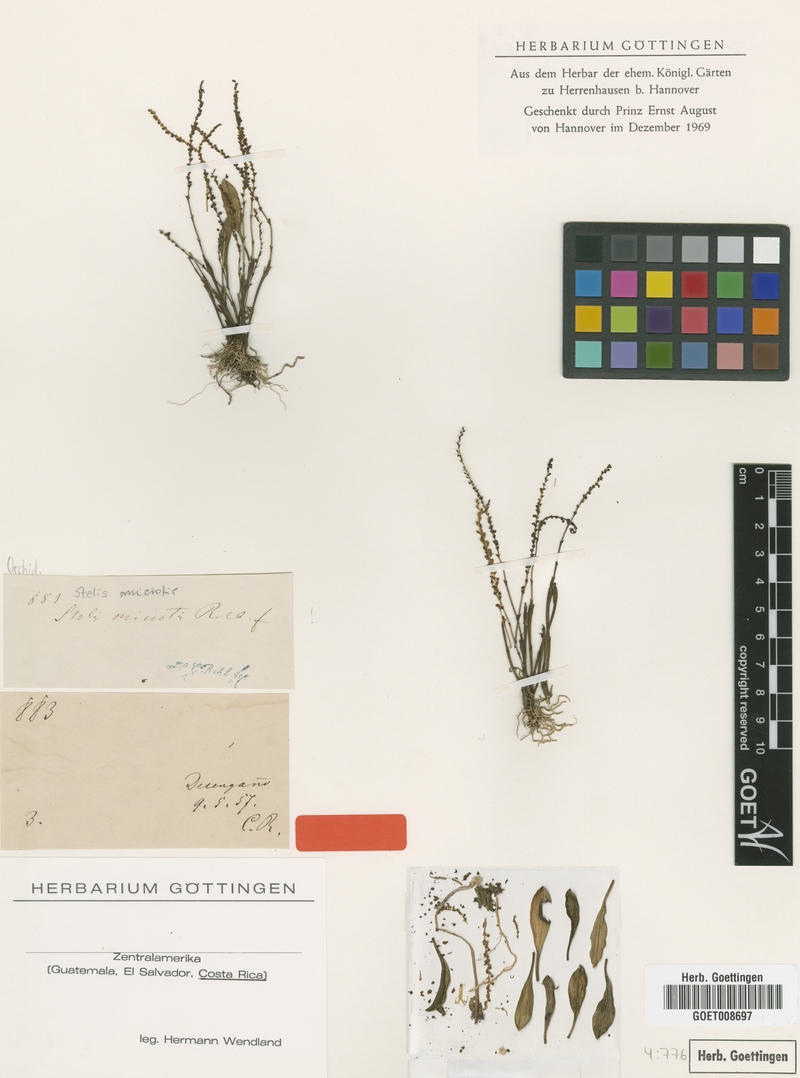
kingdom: Plantae
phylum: Tracheophyta
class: Liliopsida
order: Asparagales
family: Orchidaceae
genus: Stelis
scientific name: Stelis microtis
